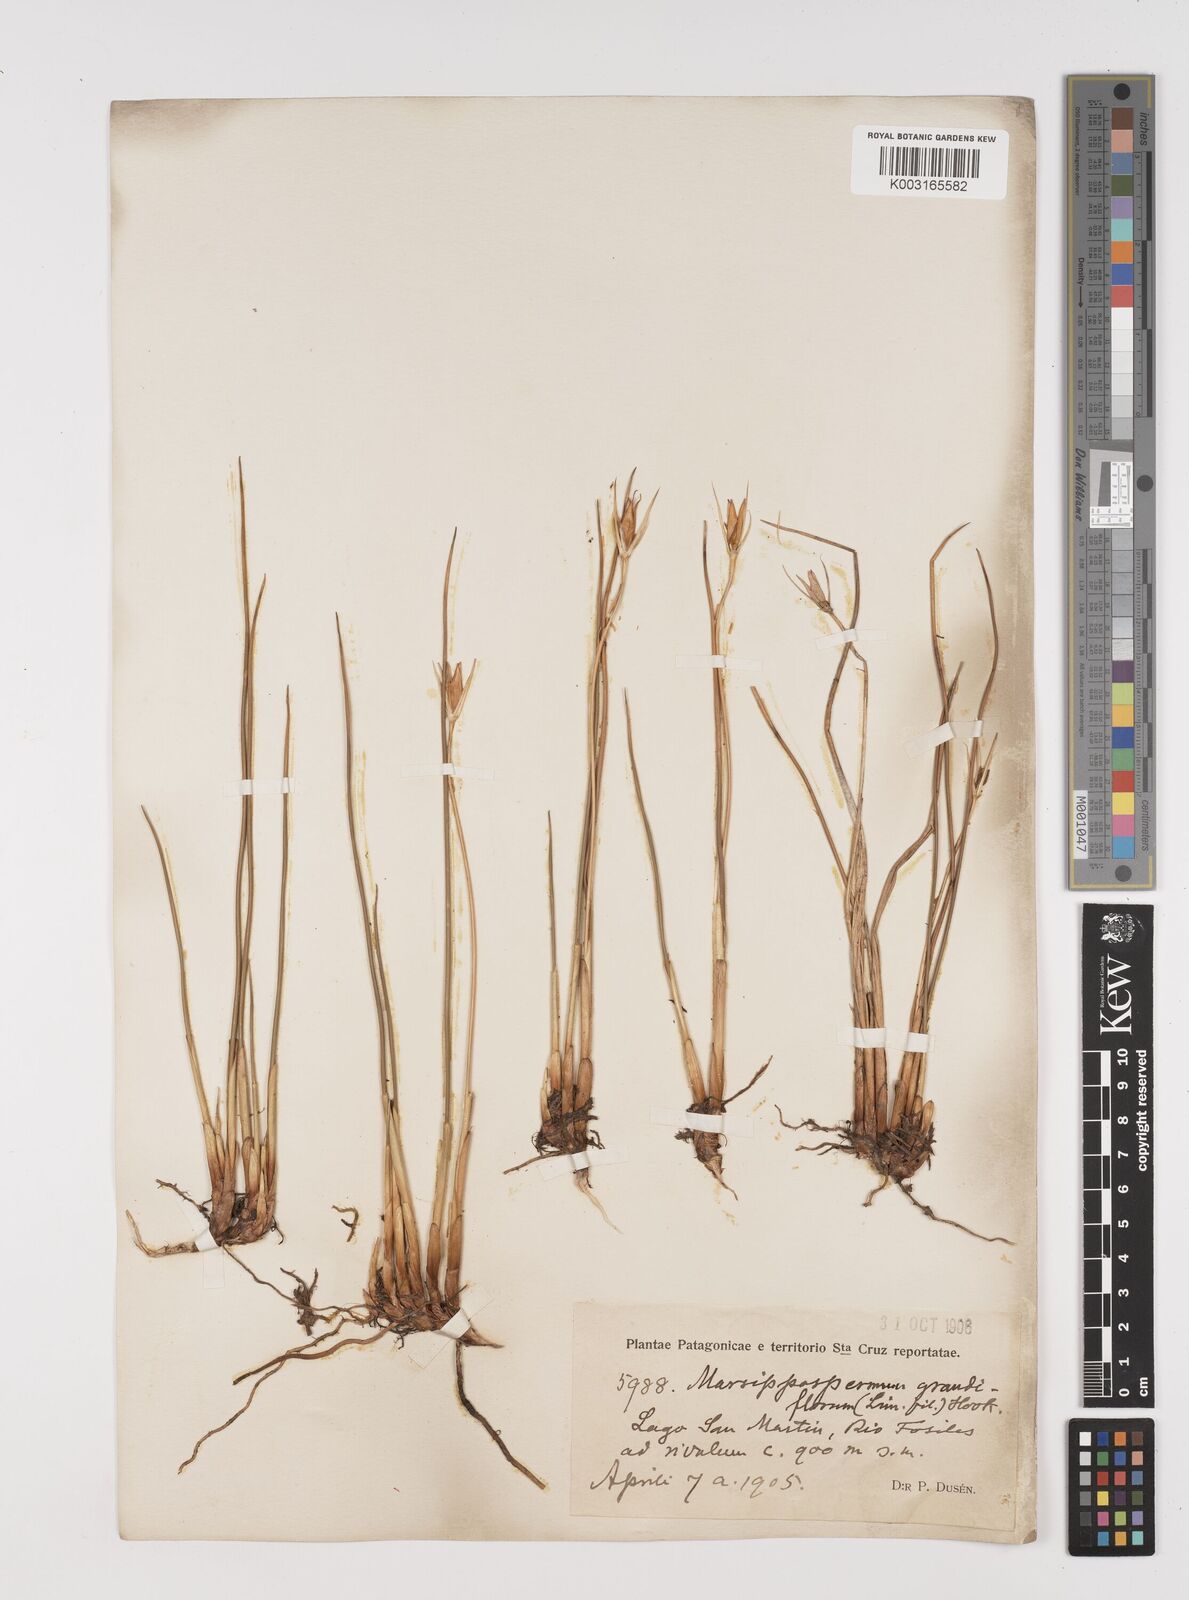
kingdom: Plantae
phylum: Tracheophyta
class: Liliopsida
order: Poales
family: Juncaceae
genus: Marsippospermum
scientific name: Marsippospermum grandiflorum
